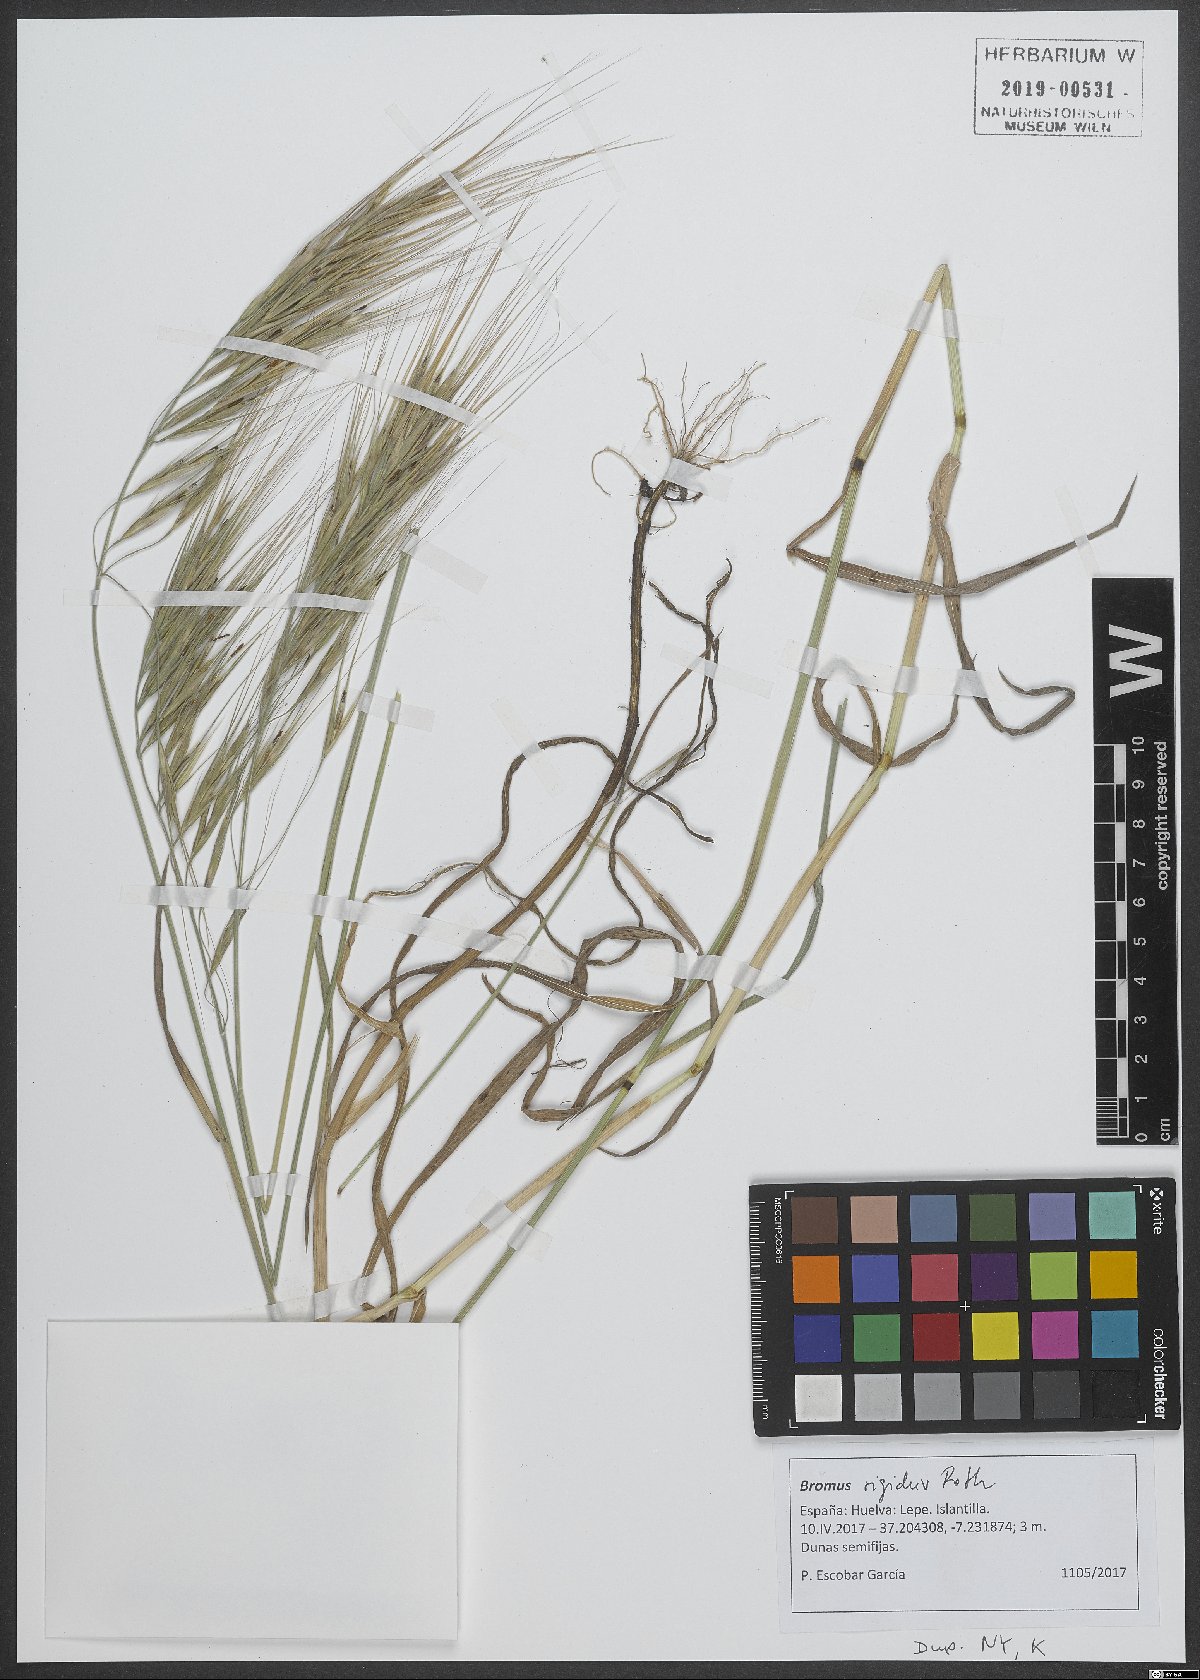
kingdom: Plantae
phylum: Tracheophyta
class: Liliopsida
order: Poales
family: Poaceae
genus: Bromus
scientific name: Bromus rigidus
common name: Ripgut brome
